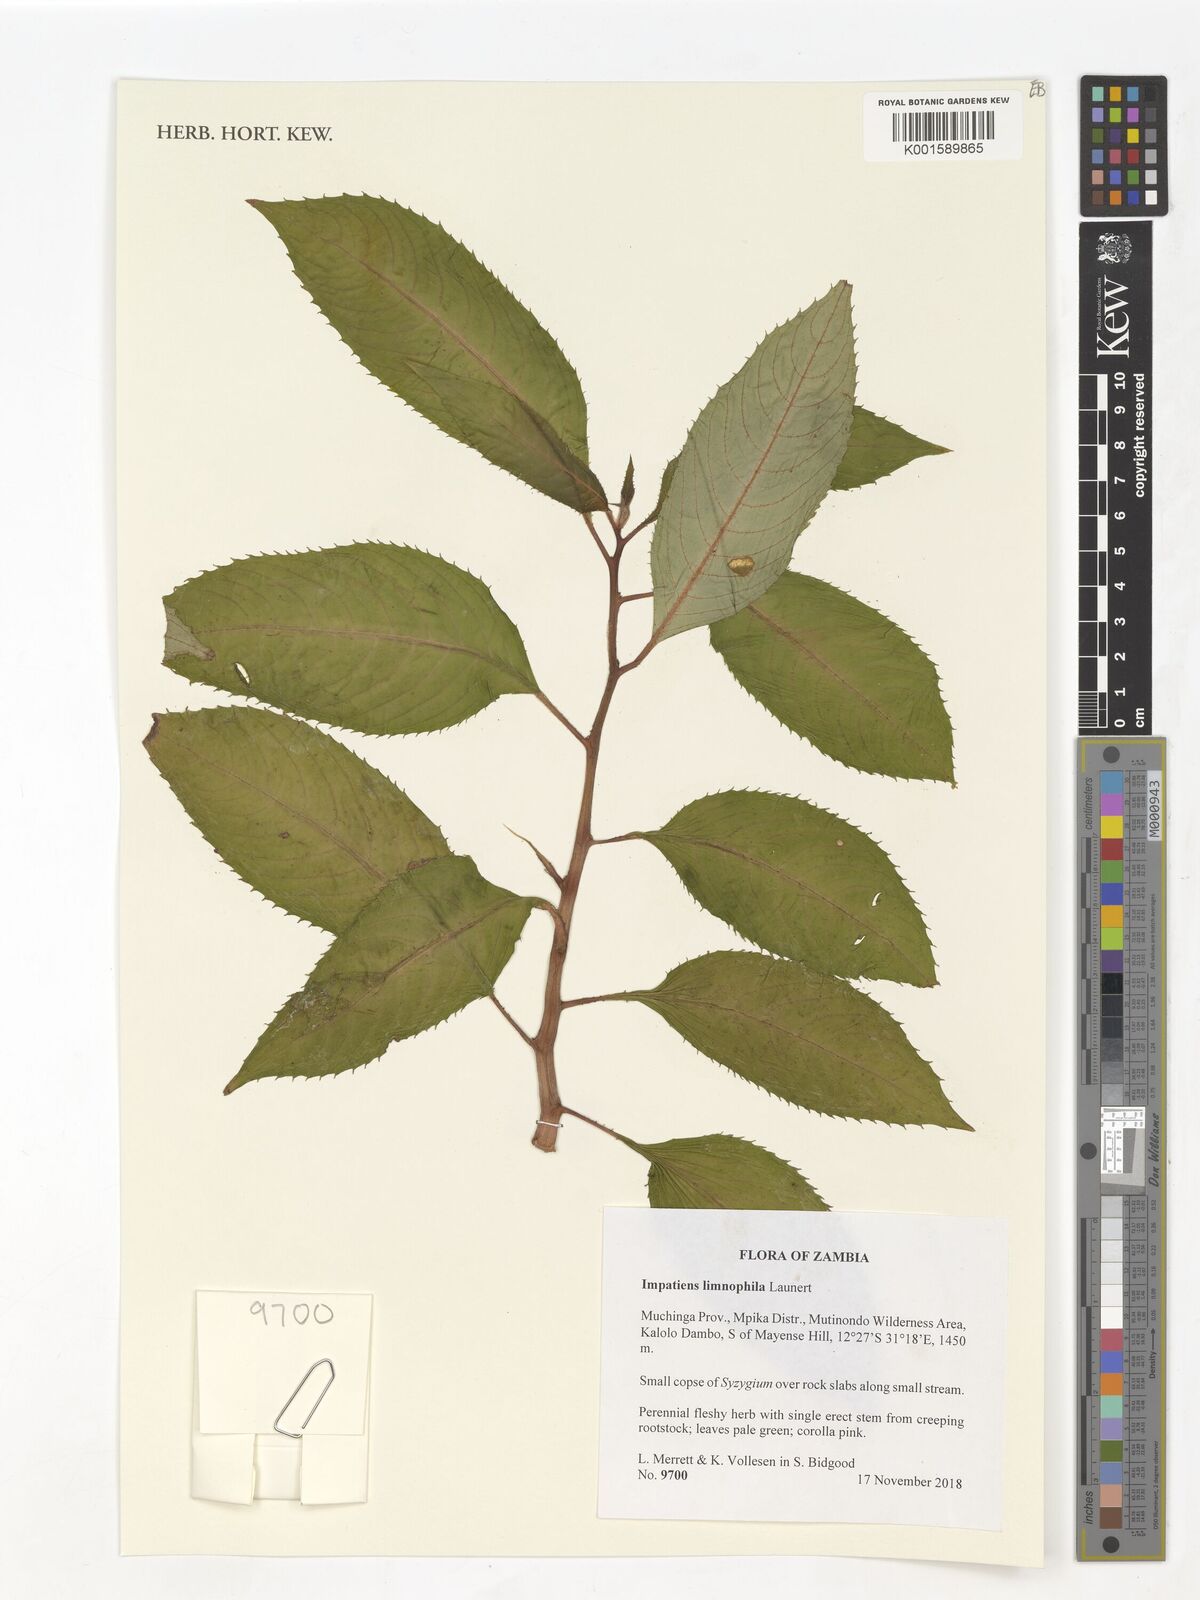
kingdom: Plantae
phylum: Tracheophyta
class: Magnoliopsida
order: Ericales
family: Balsaminaceae
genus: Impatiens
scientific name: Impatiens limnophila
